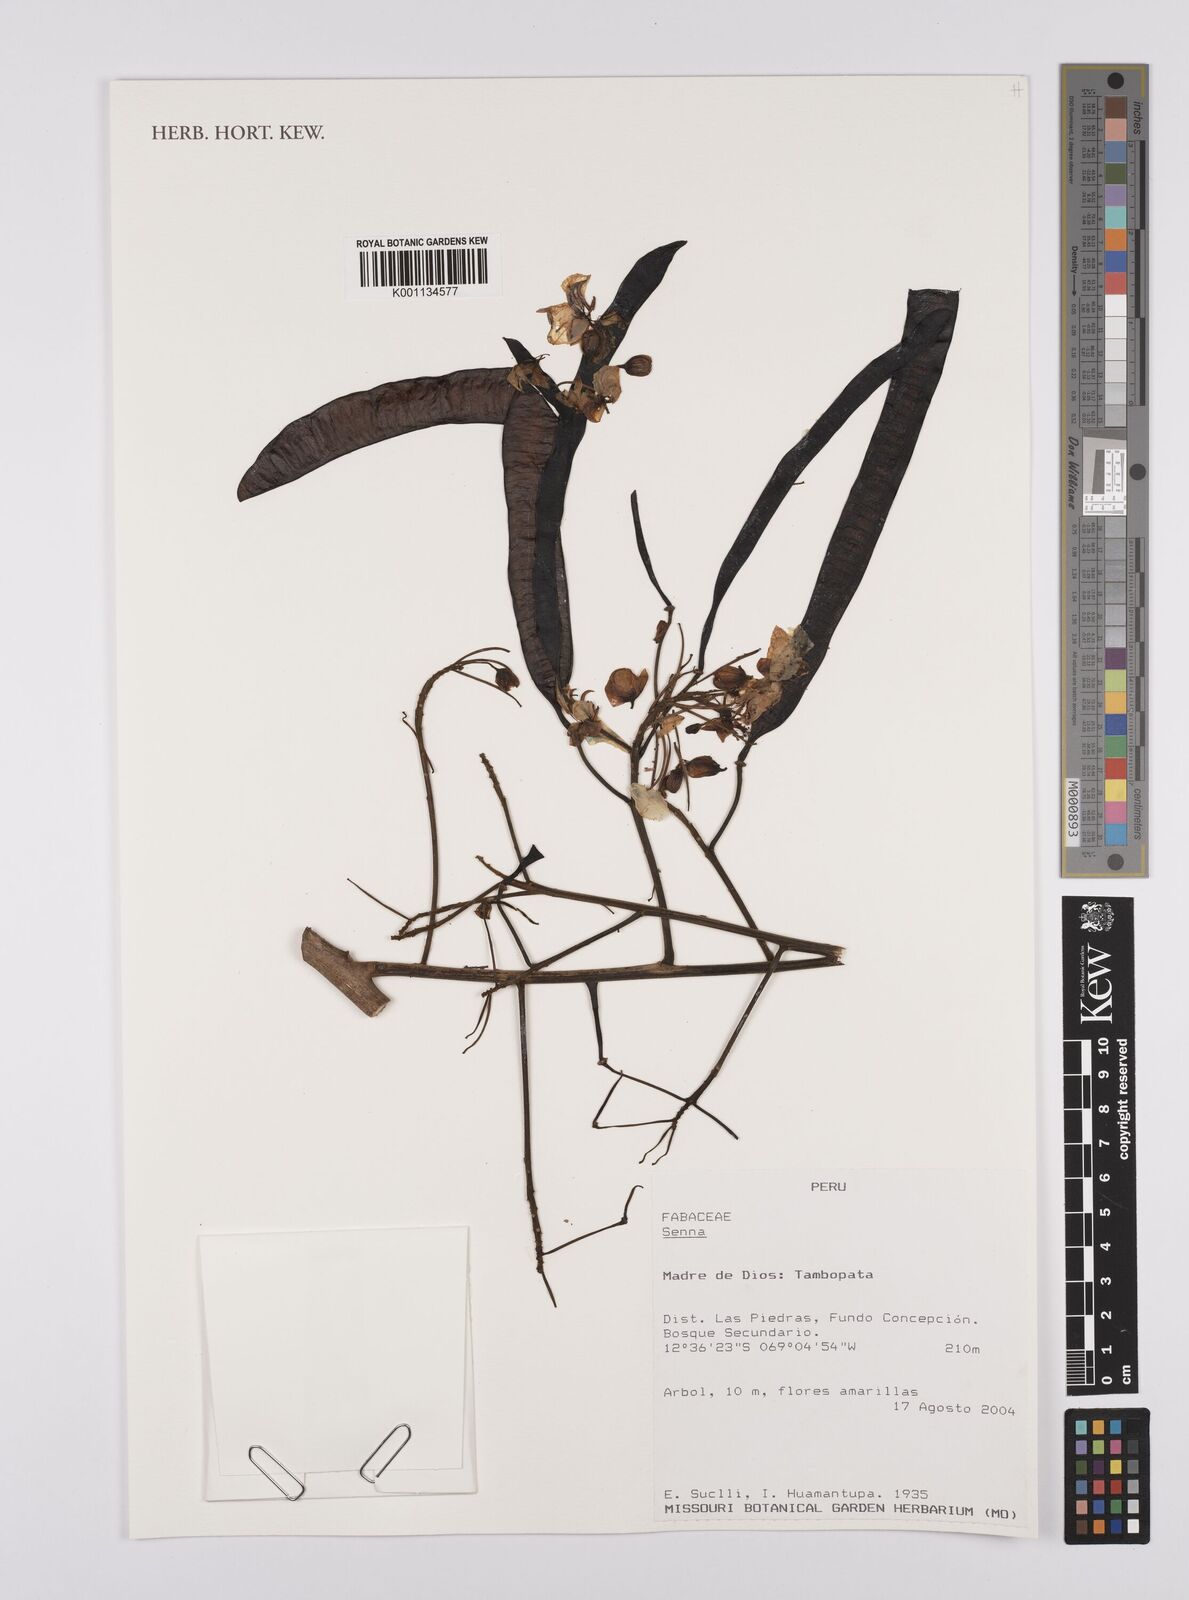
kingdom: Plantae
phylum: Tracheophyta
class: Magnoliopsida
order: Fabales
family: Fabaceae
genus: Senna
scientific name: Senna
